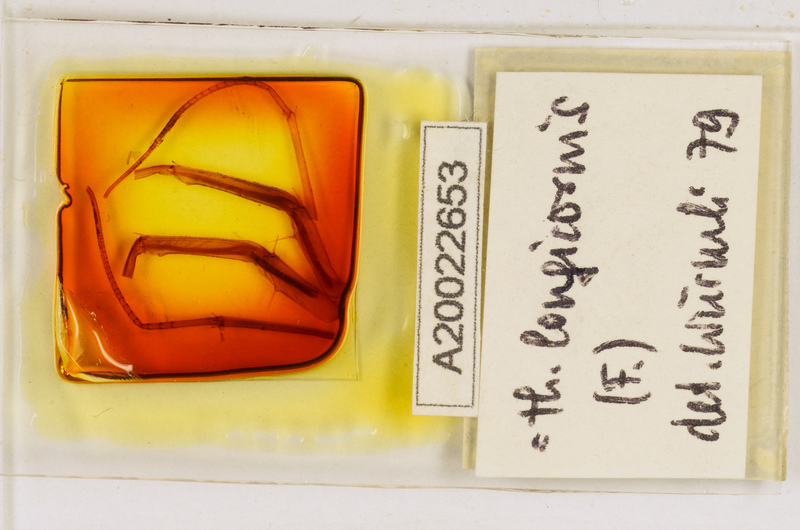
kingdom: Animalia
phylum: Arthropoda
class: Chilopoda
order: Scutigeromorpha
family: Scutigeridae
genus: Thereuopoda
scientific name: Thereuopoda longicornis
